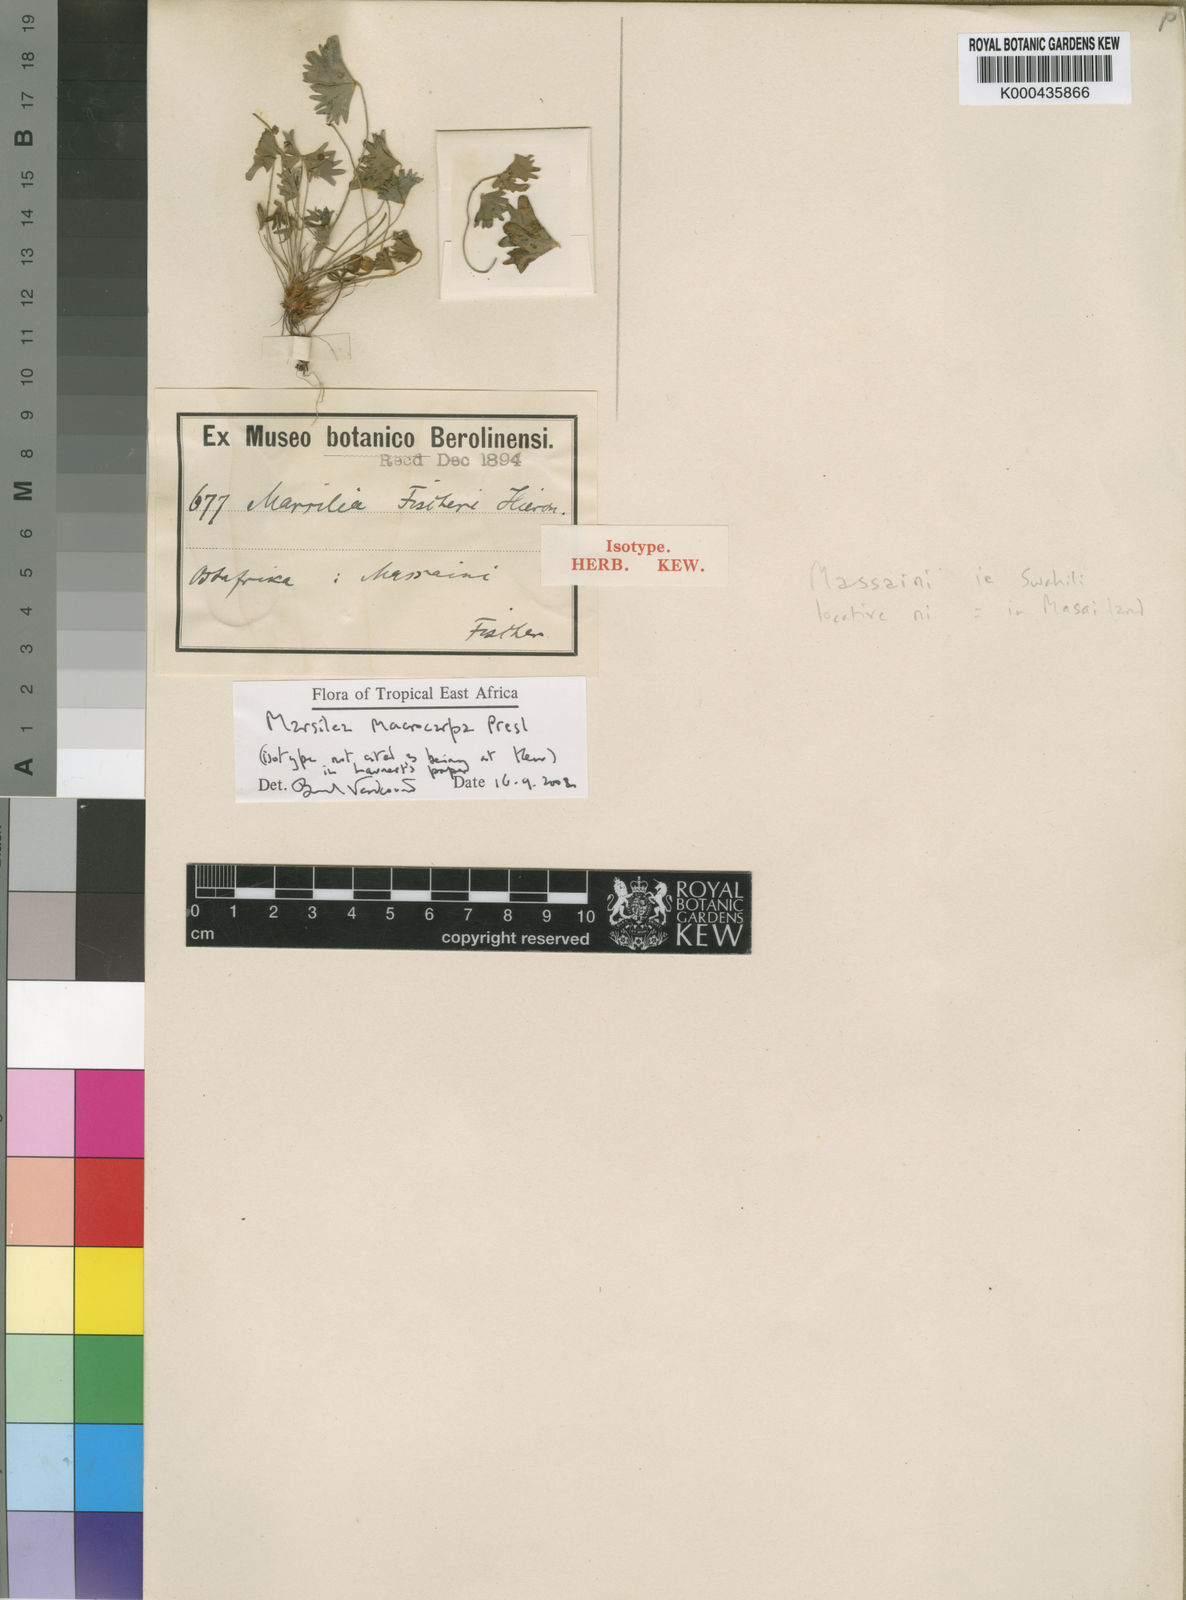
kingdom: Plantae
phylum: Tracheophyta
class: Polypodiopsida
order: Salviniales
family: Marsileaceae
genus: Marsilea
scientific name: Marsilea macrocarpa
